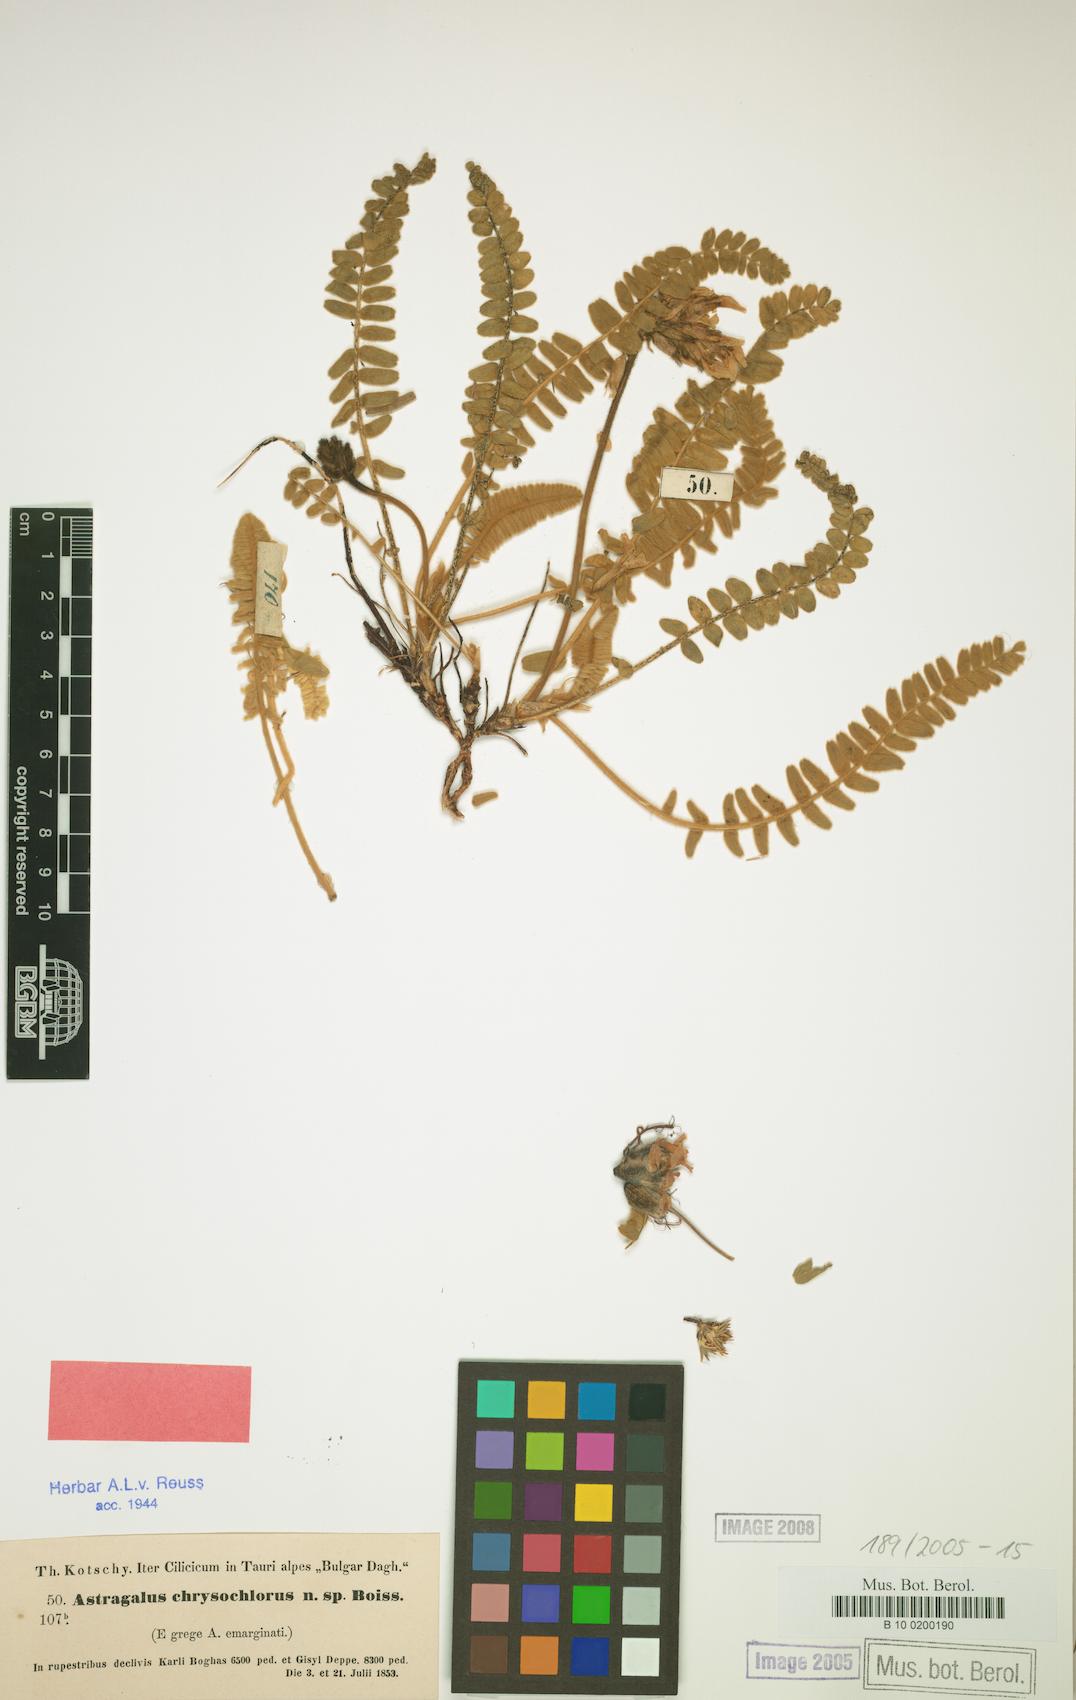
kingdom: Plantae
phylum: Tracheophyta
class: Magnoliopsida
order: Fabales
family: Fabaceae
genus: Astragalus
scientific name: Astragalus chrysochlorus
